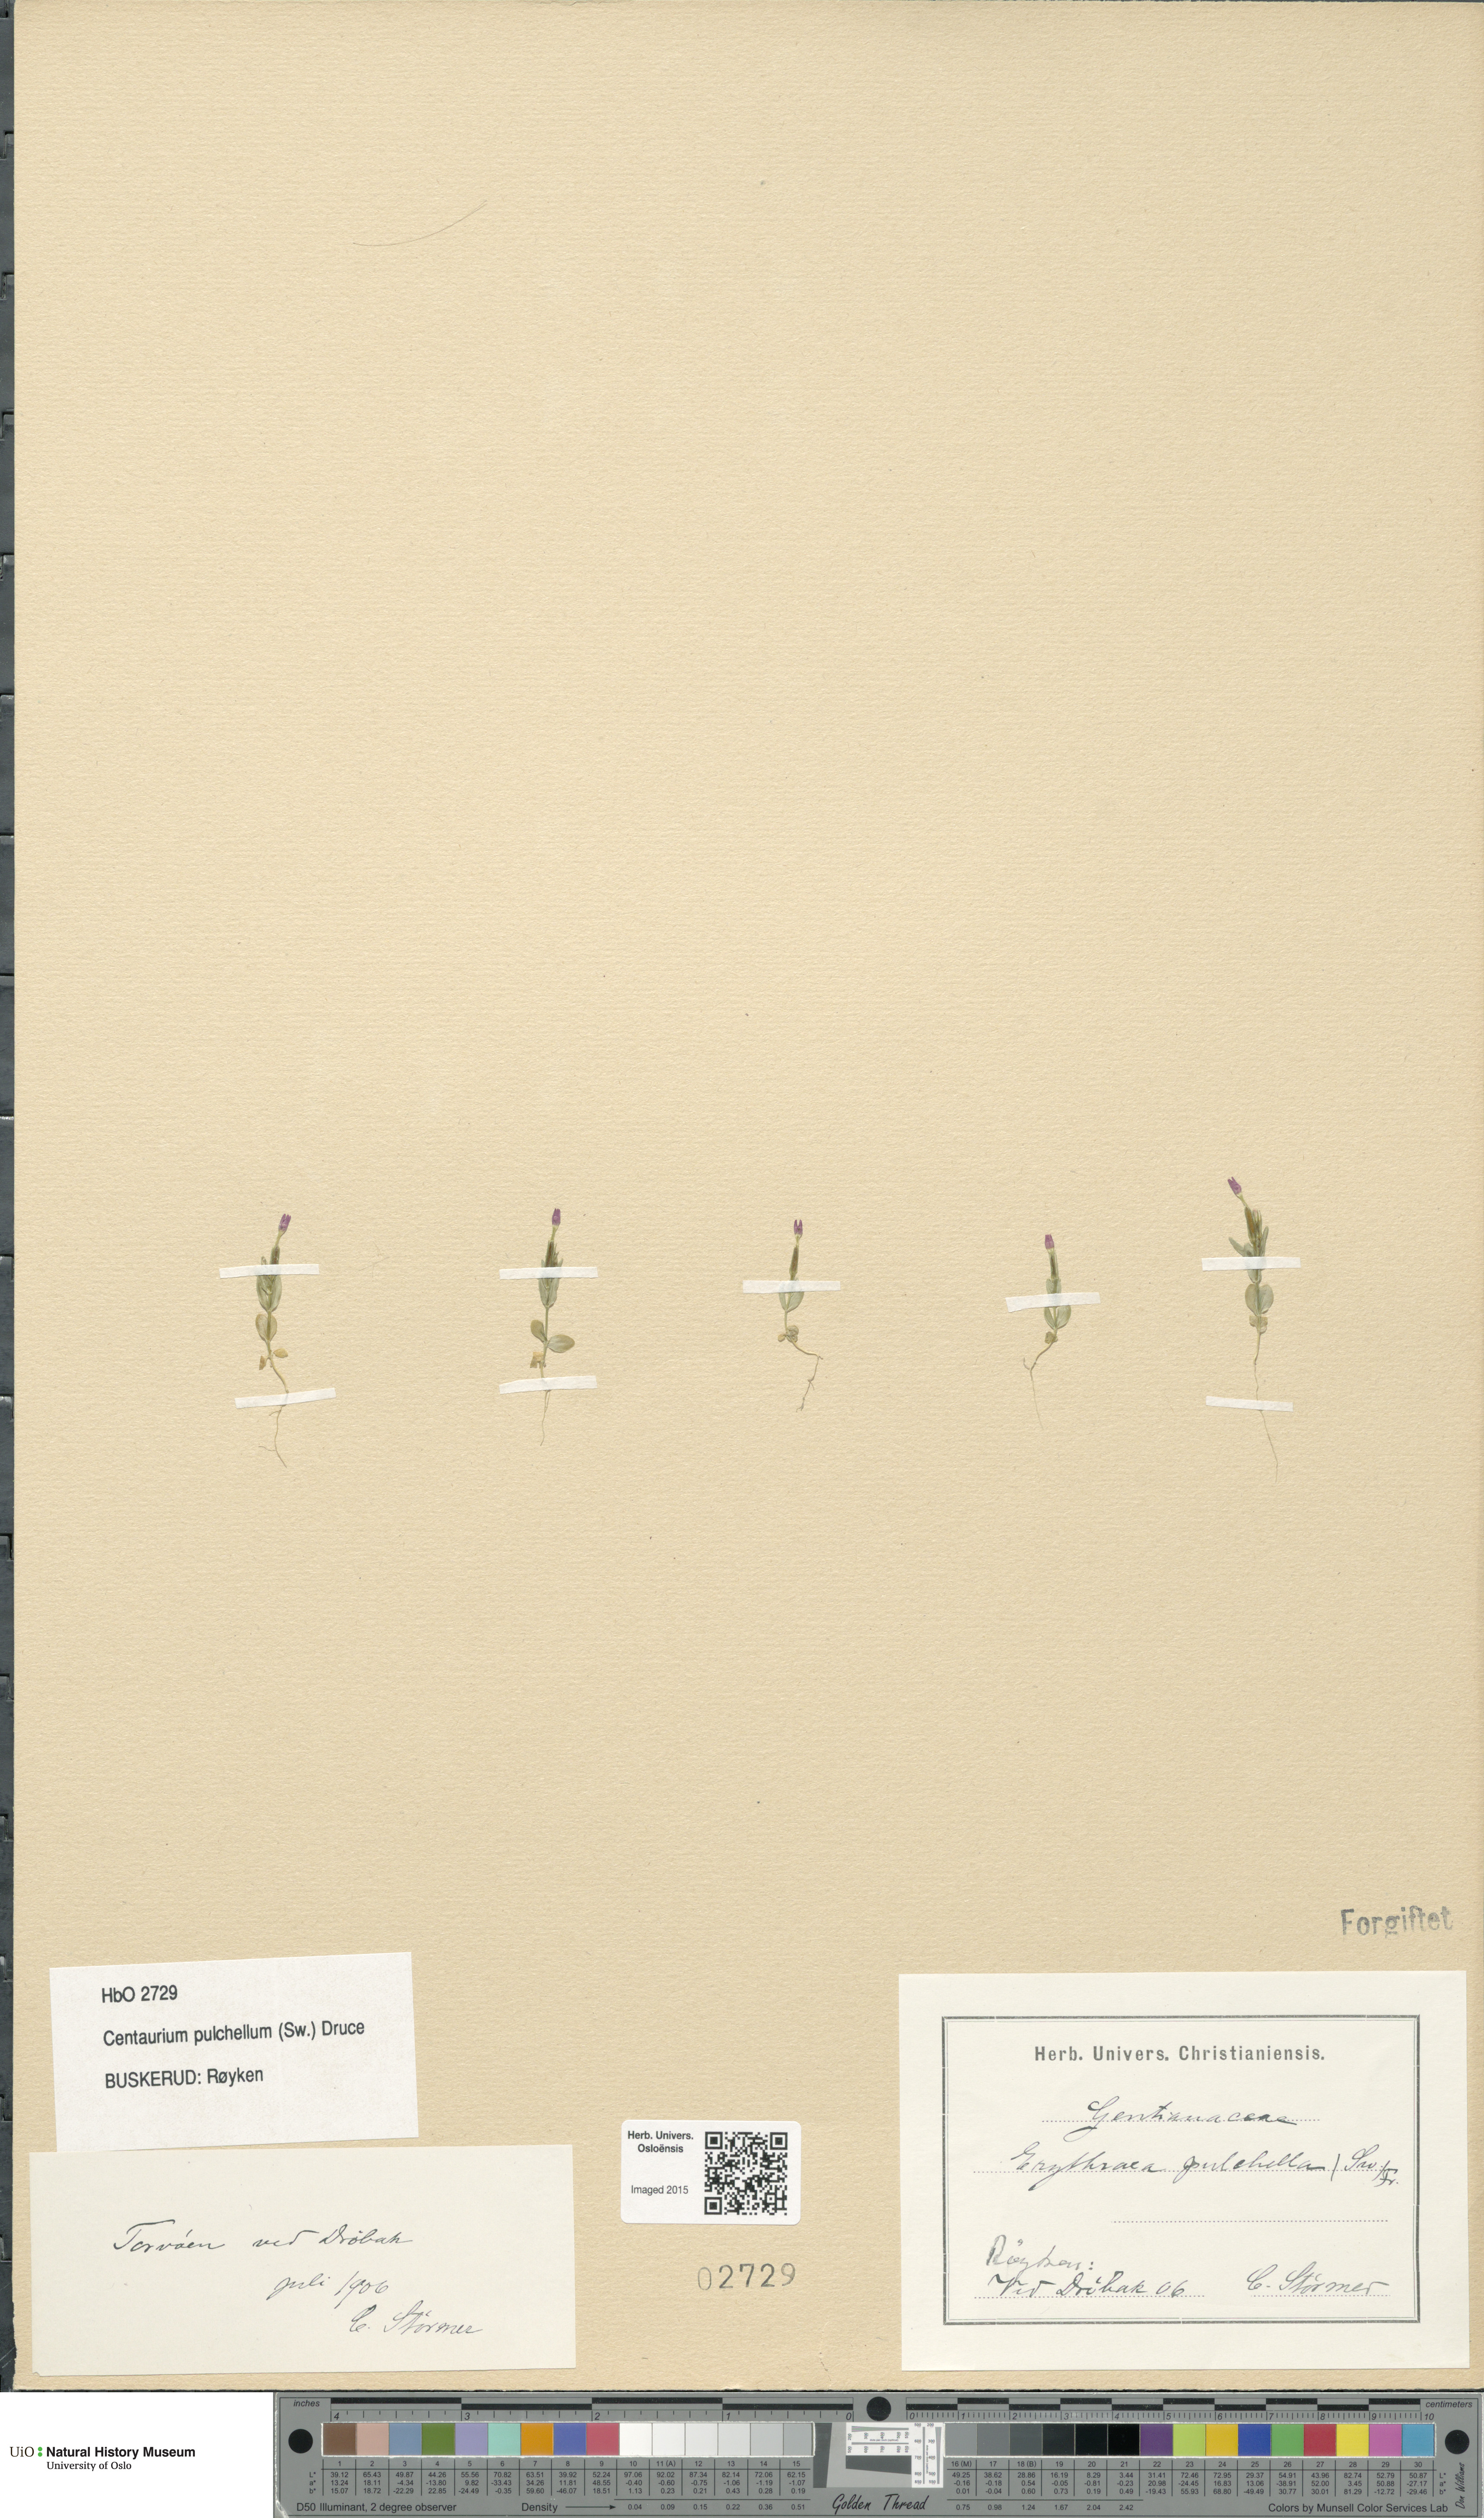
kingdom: Plantae
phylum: Tracheophyta
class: Magnoliopsida
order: Gentianales
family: Gentianaceae
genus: Centaurium
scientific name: Centaurium pulchellum
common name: Lesser centaury
